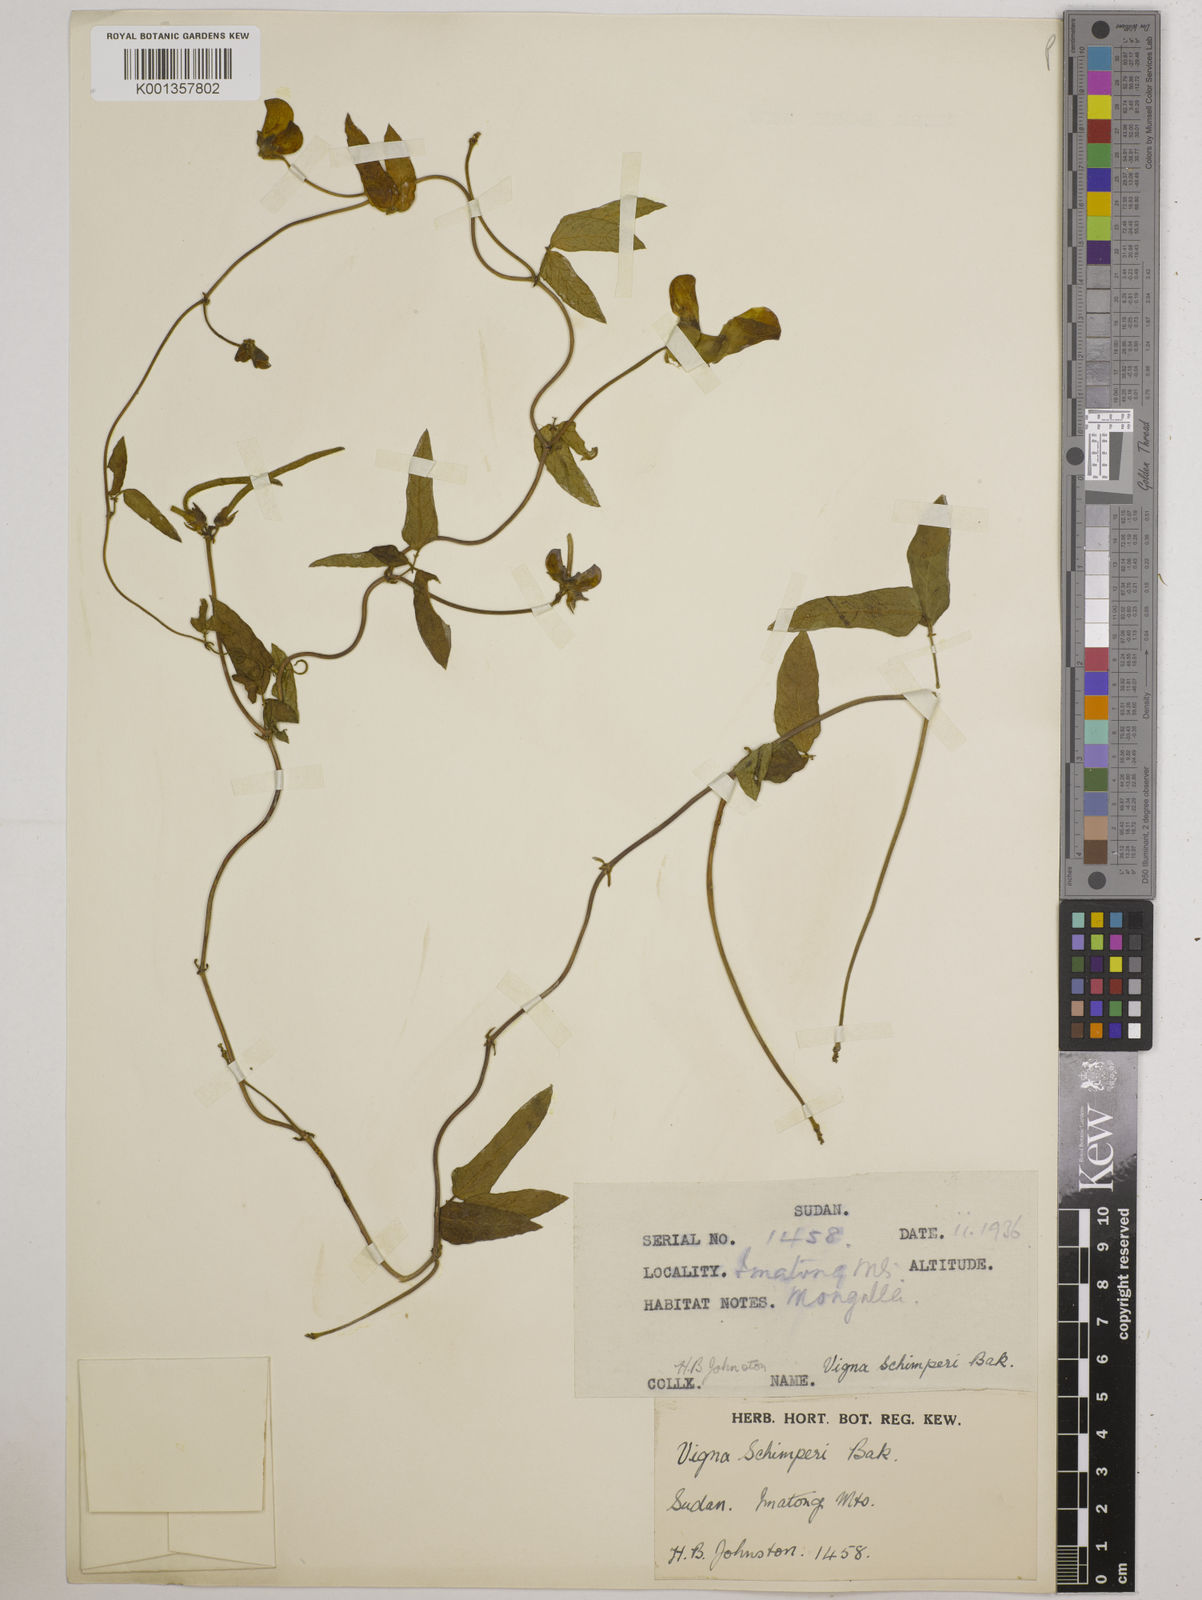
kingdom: Plantae
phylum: Tracheophyta
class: Magnoliopsida
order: Fabales
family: Fabaceae
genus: Vigna
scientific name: Vigna schimperi
